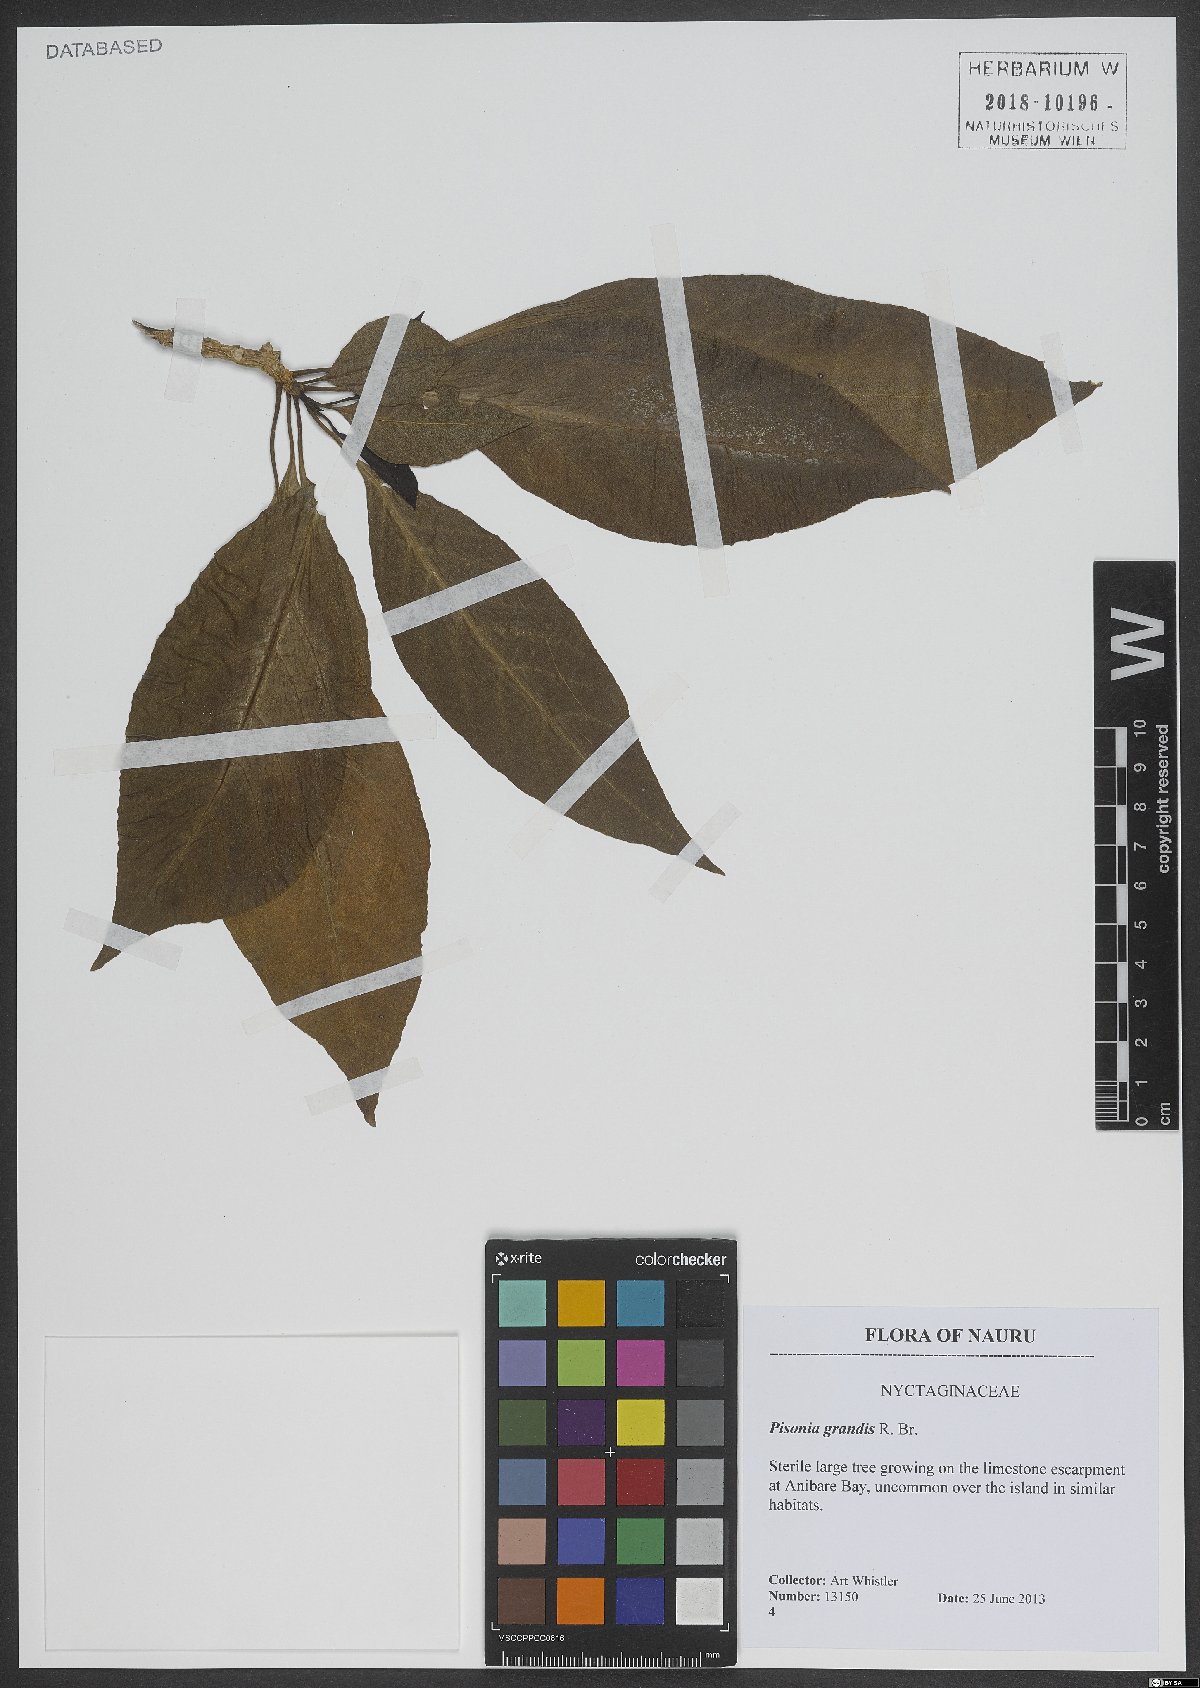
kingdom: Plantae
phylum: Tracheophyta
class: Magnoliopsida
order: Caryophyllales
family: Nyctaginaceae
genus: Ceodes
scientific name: Ceodes grandis
